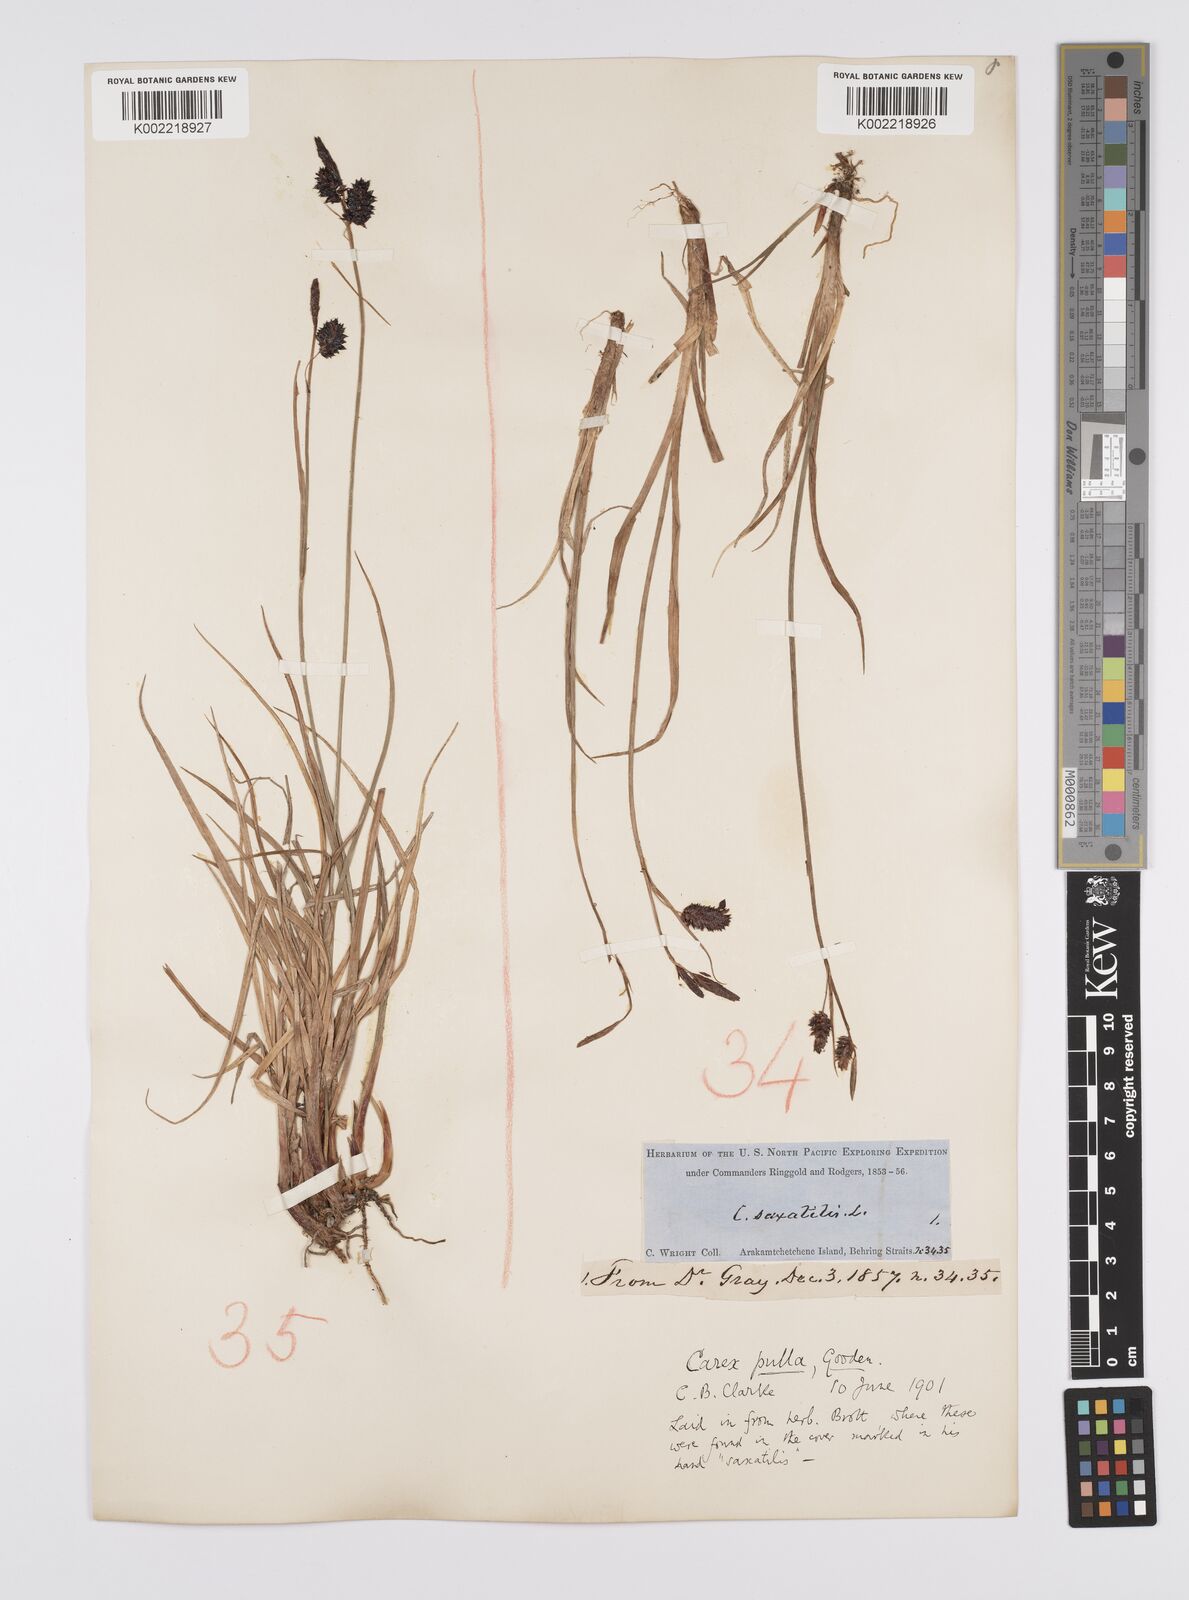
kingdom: Plantae
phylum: Tracheophyta
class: Liliopsida
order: Poales
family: Cyperaceae
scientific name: Cyperaceae
